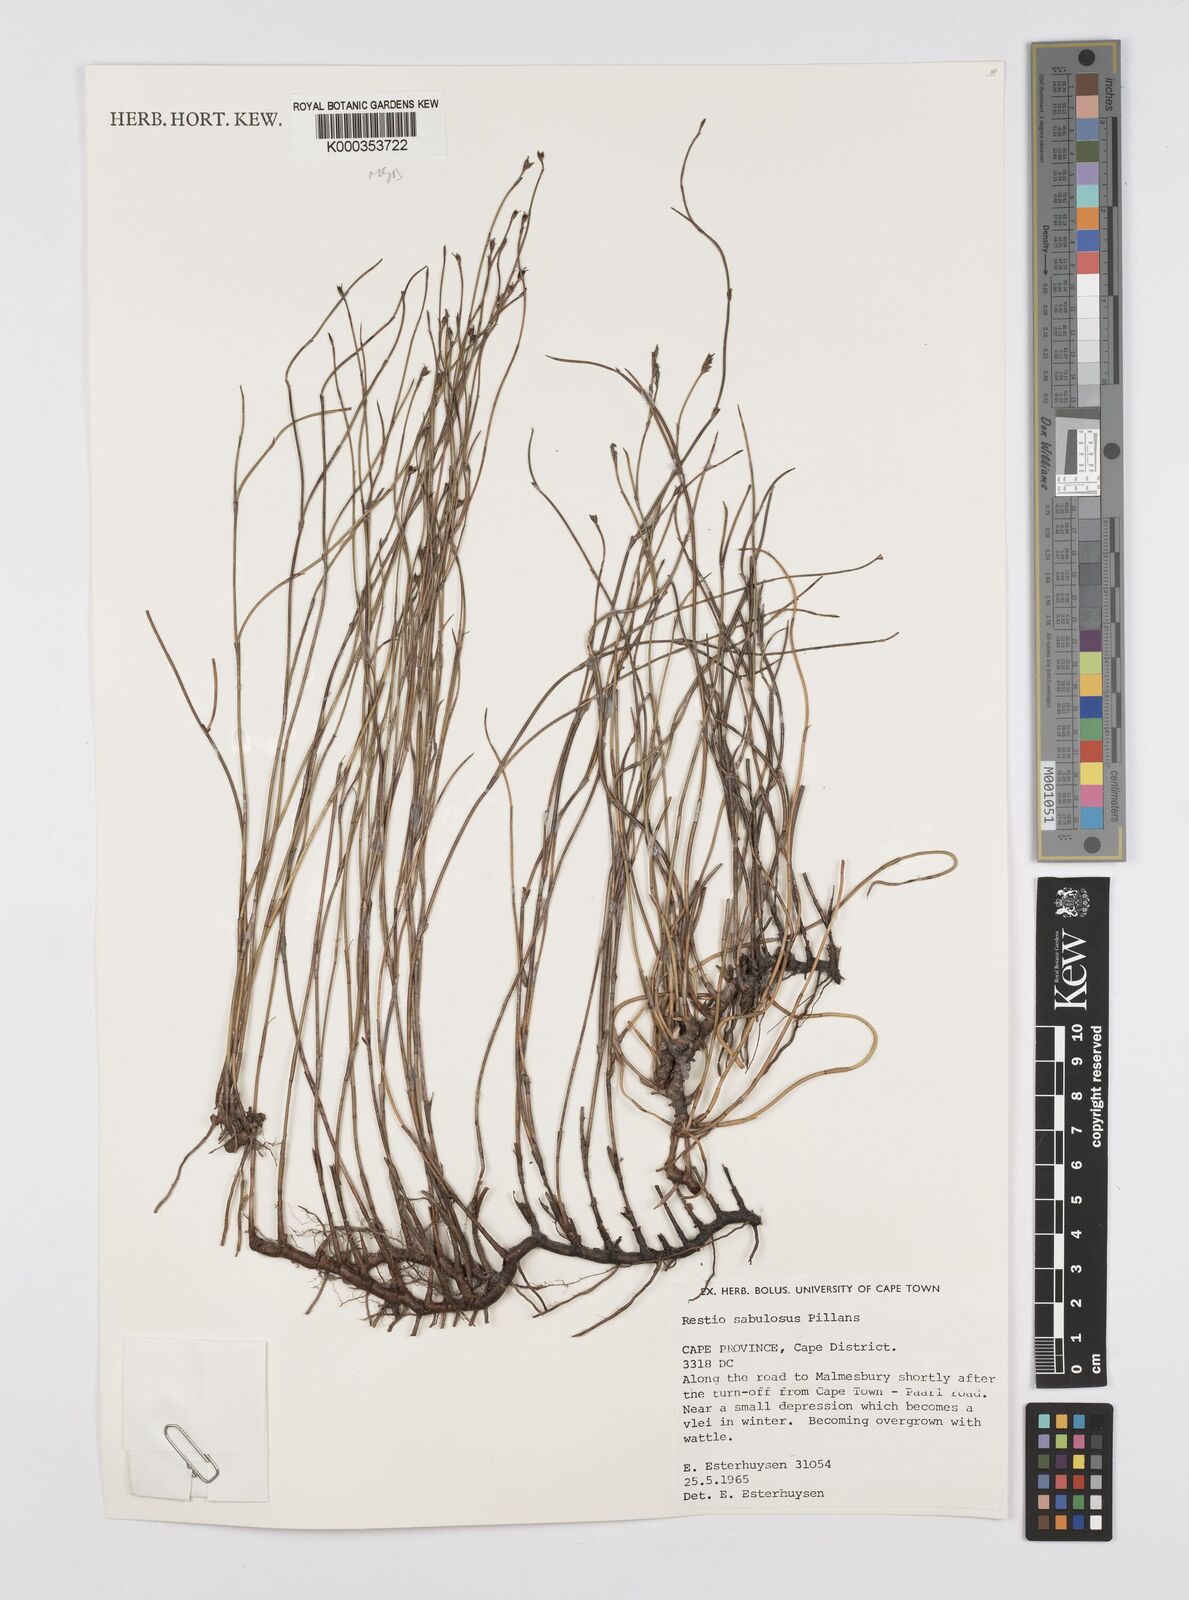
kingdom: Plantae
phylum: Tracheophyta
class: Liliopsida
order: Poales
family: Restionaceae
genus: Restio
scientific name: Restio sabulosus
